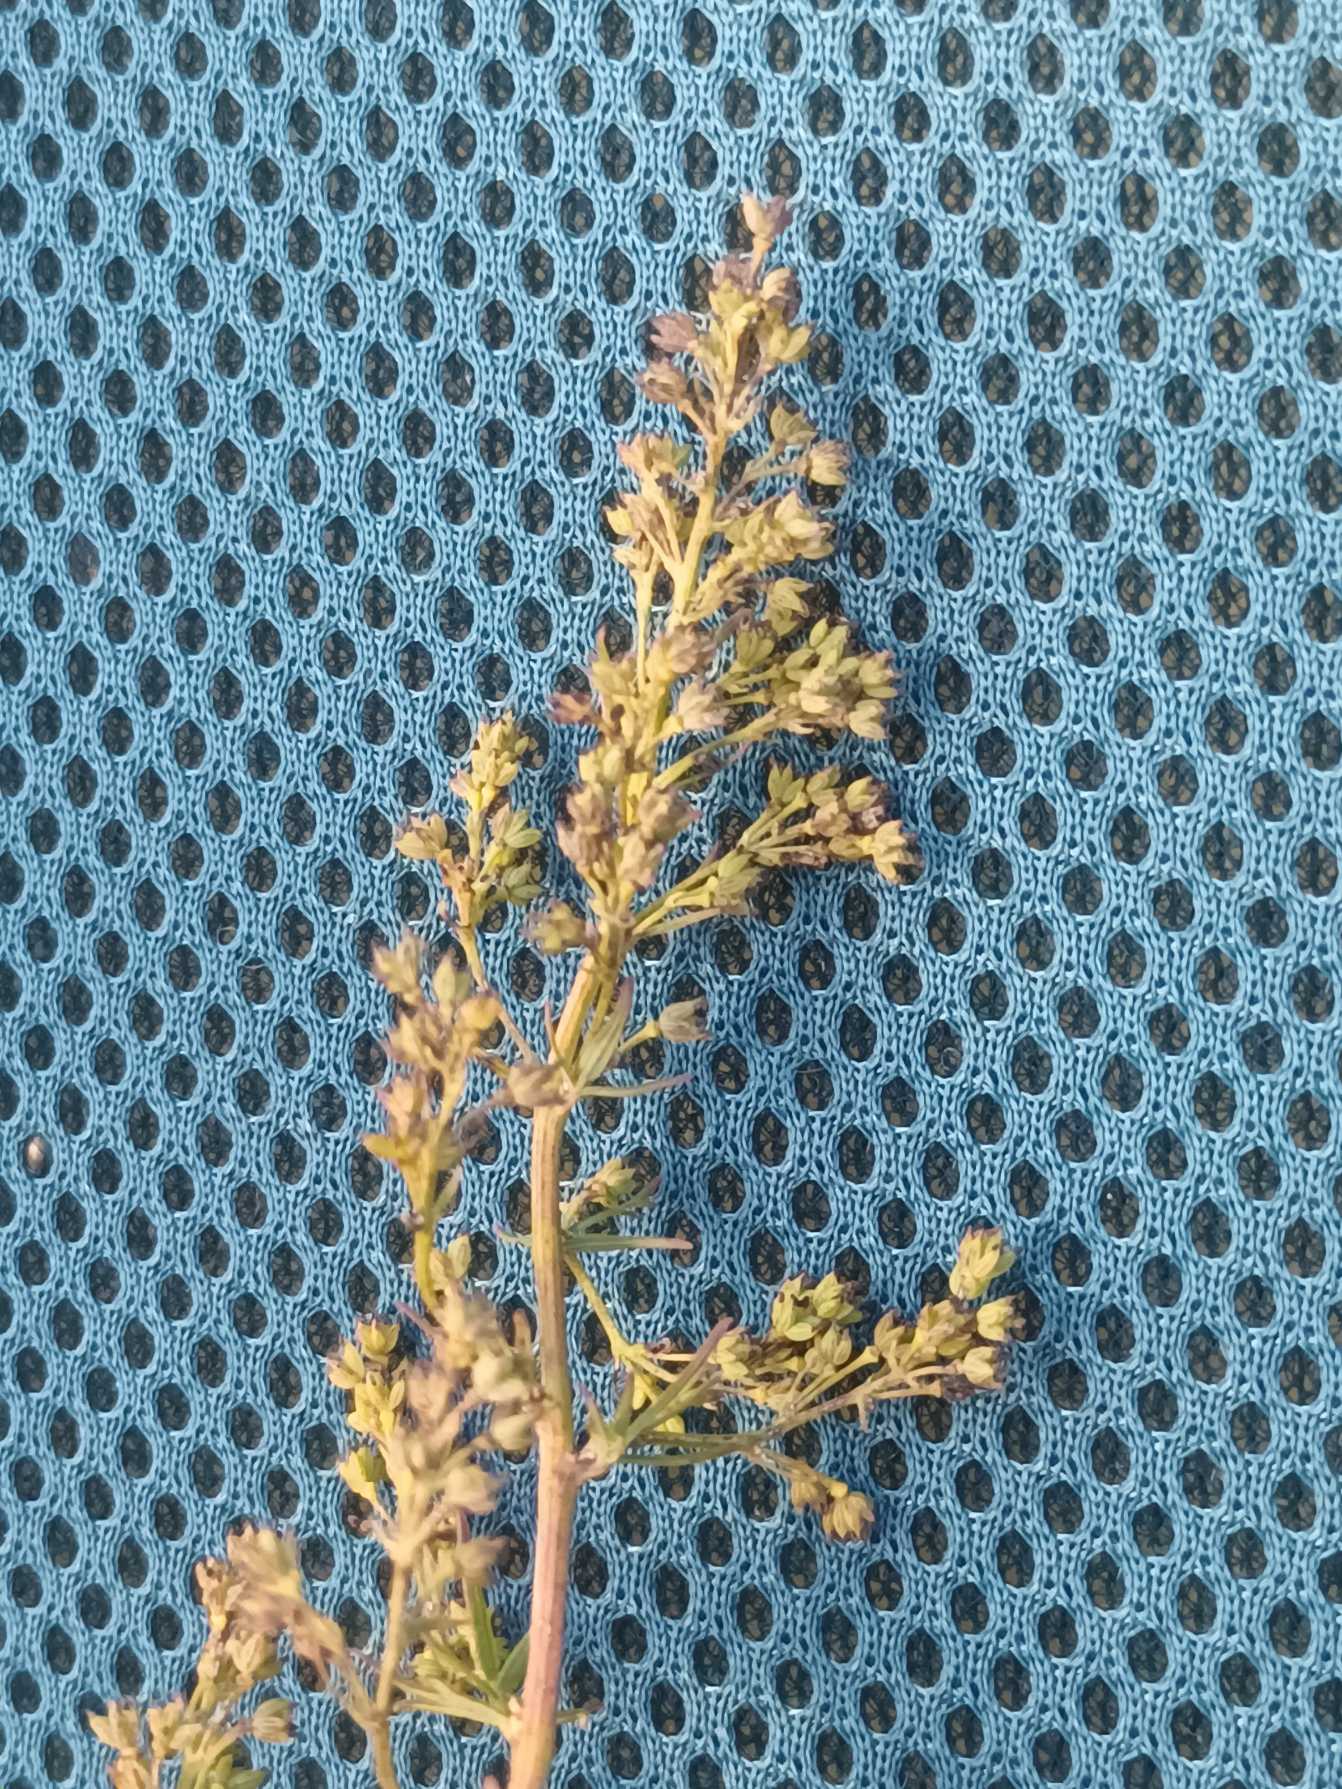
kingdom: Plantae
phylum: Tracheophyta
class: Magnoliopsida
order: Ranunculales
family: Ranunculaceae
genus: Thalictrum
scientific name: Thalictrum simplex
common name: Rank frøstjerne
